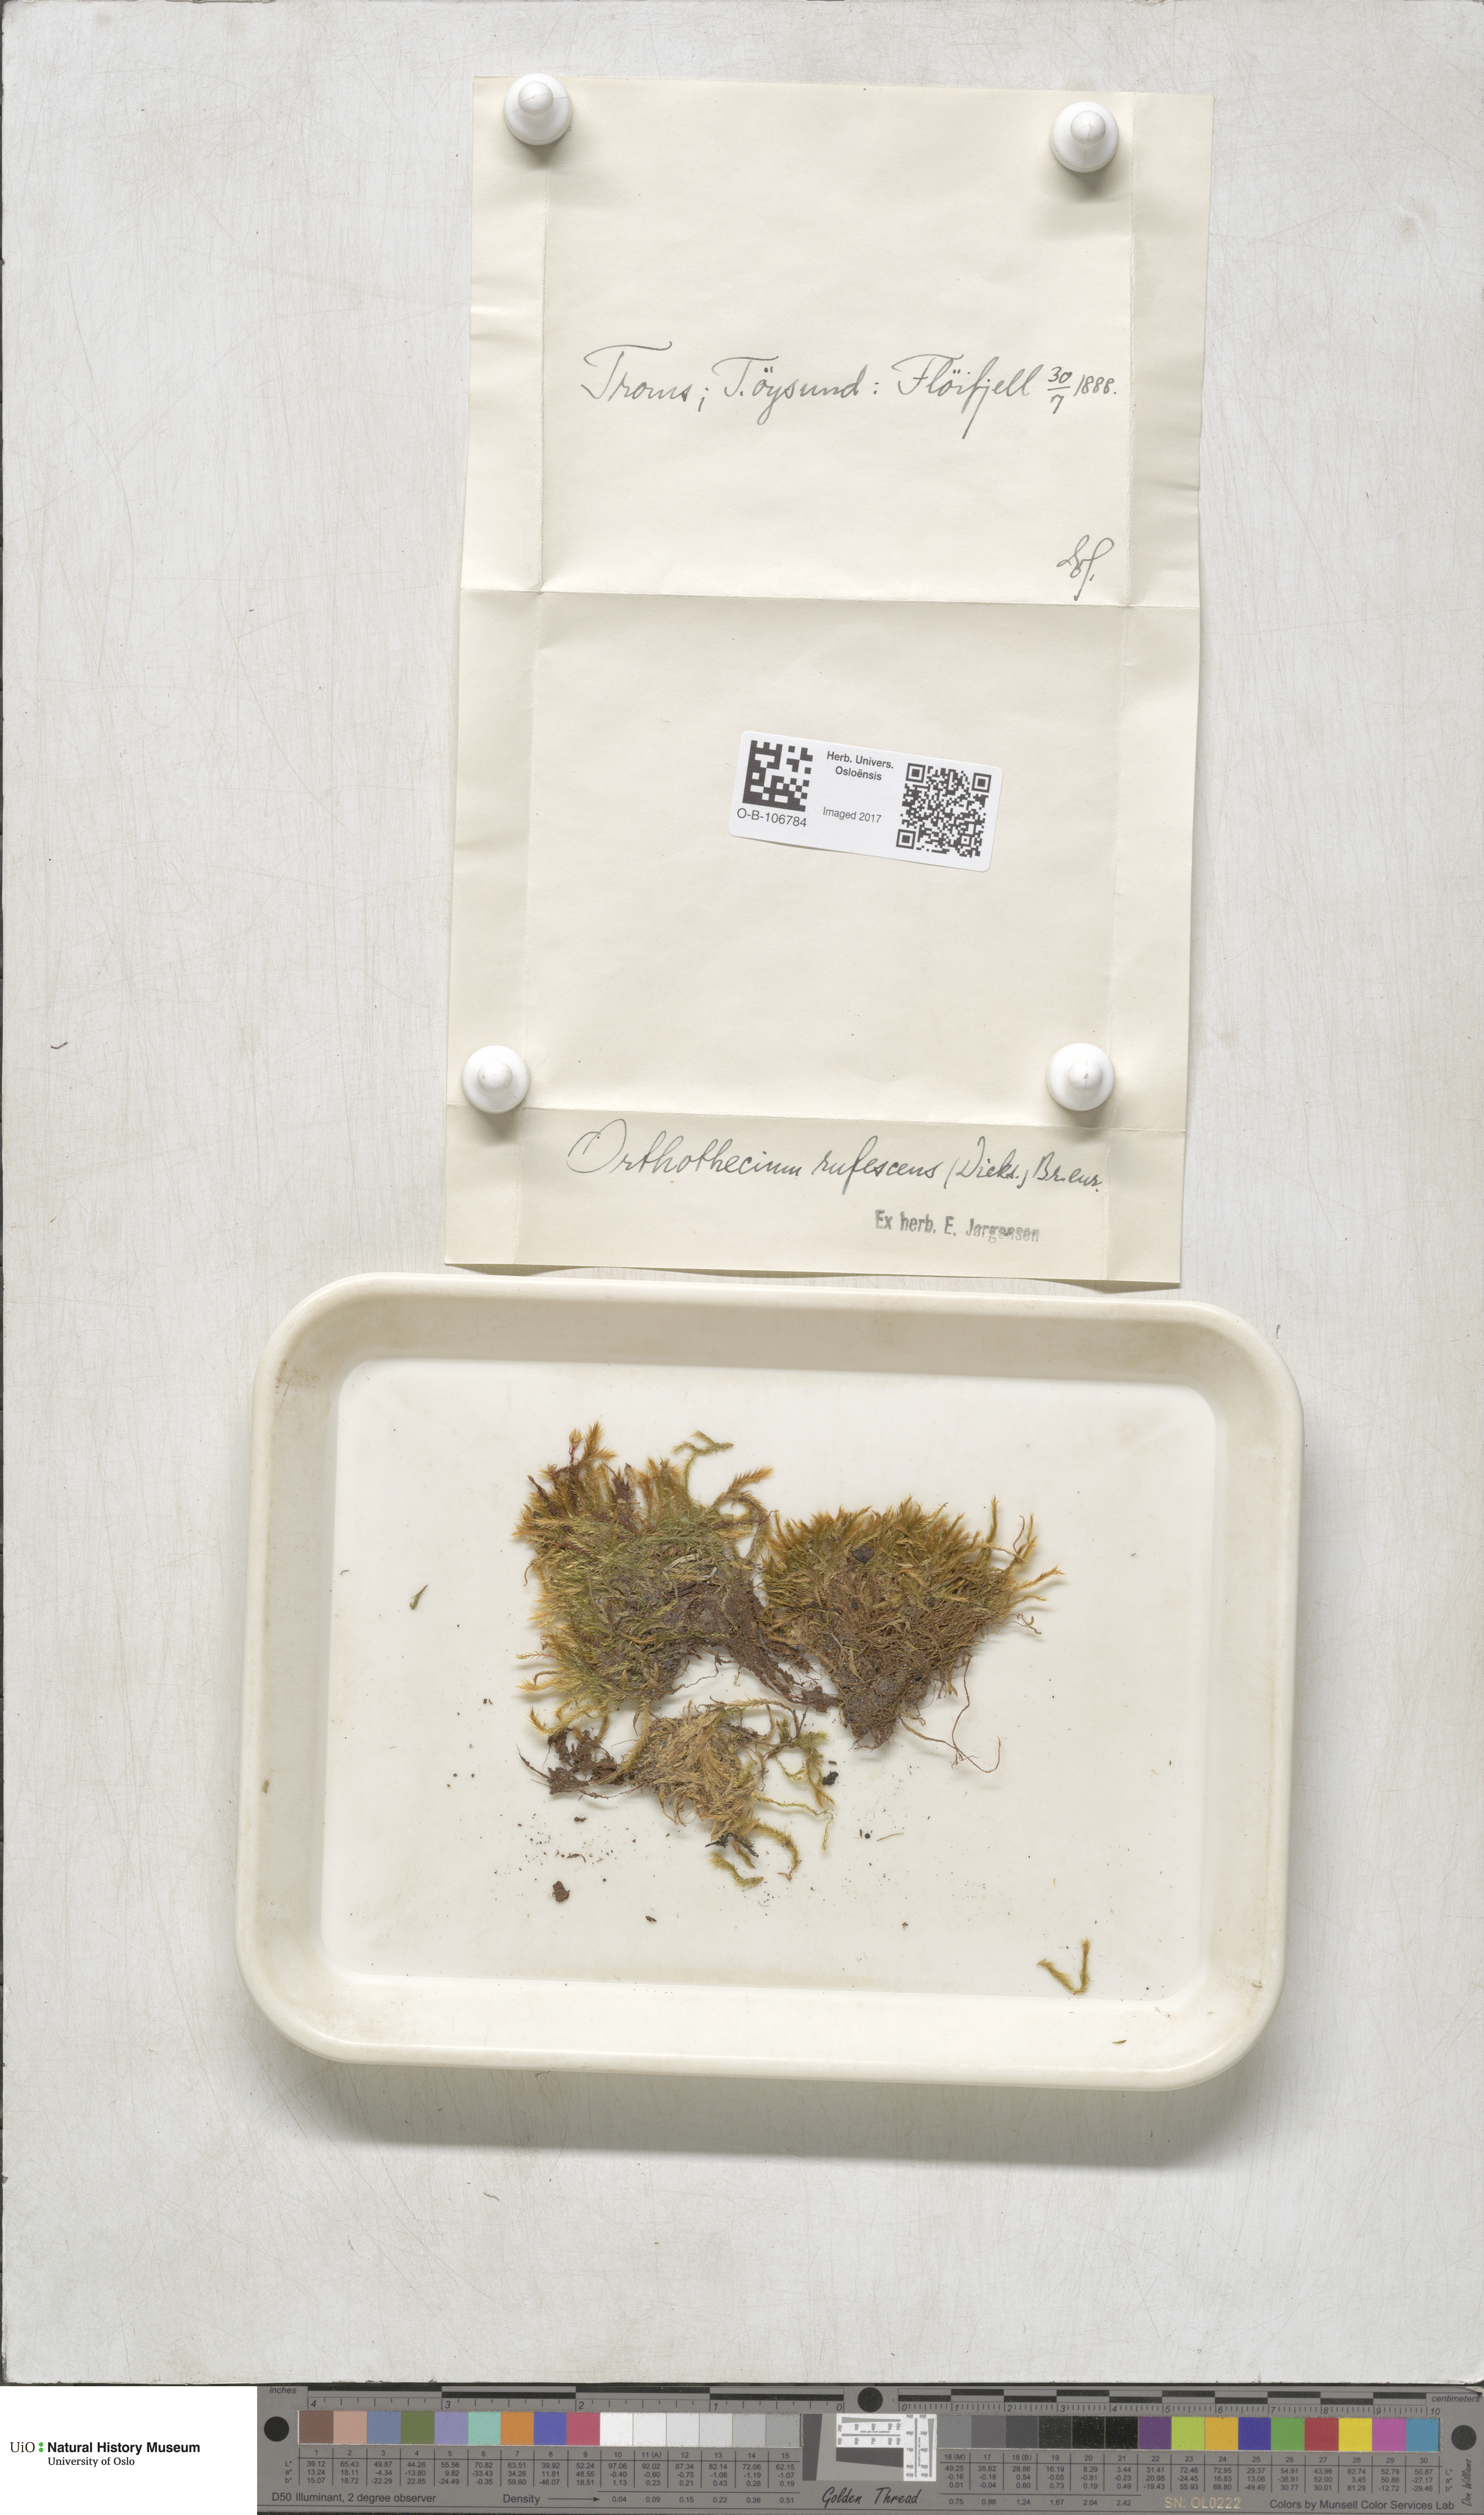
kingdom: Plantae
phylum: Bryophyta
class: Bryopsida
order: Hypnales
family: Plagiotheciaceae
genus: Orthothecium
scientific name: Orthothecium rufescens
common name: Red leskea
